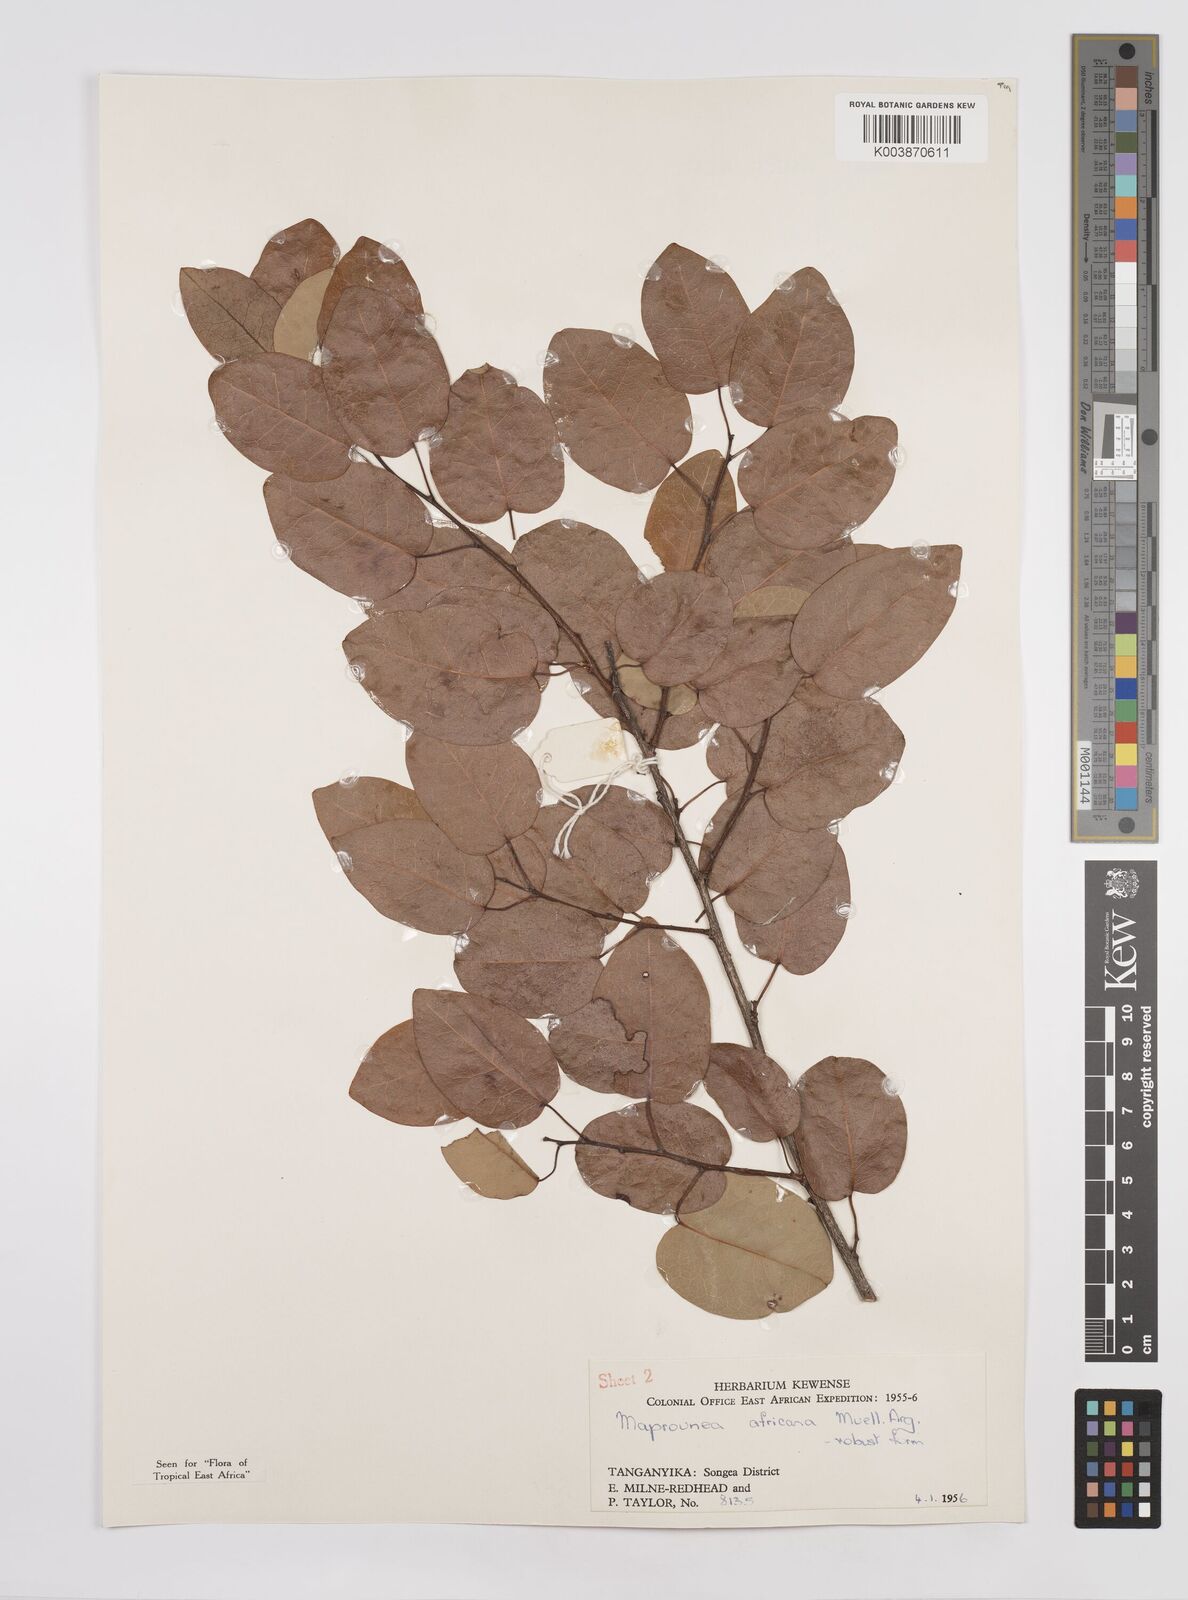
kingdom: Plantae
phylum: Tracheophyta
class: Magnoliopsida
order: Malpighiales
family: Euphorbiaceae
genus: Maprounea
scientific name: Maprounea africana
